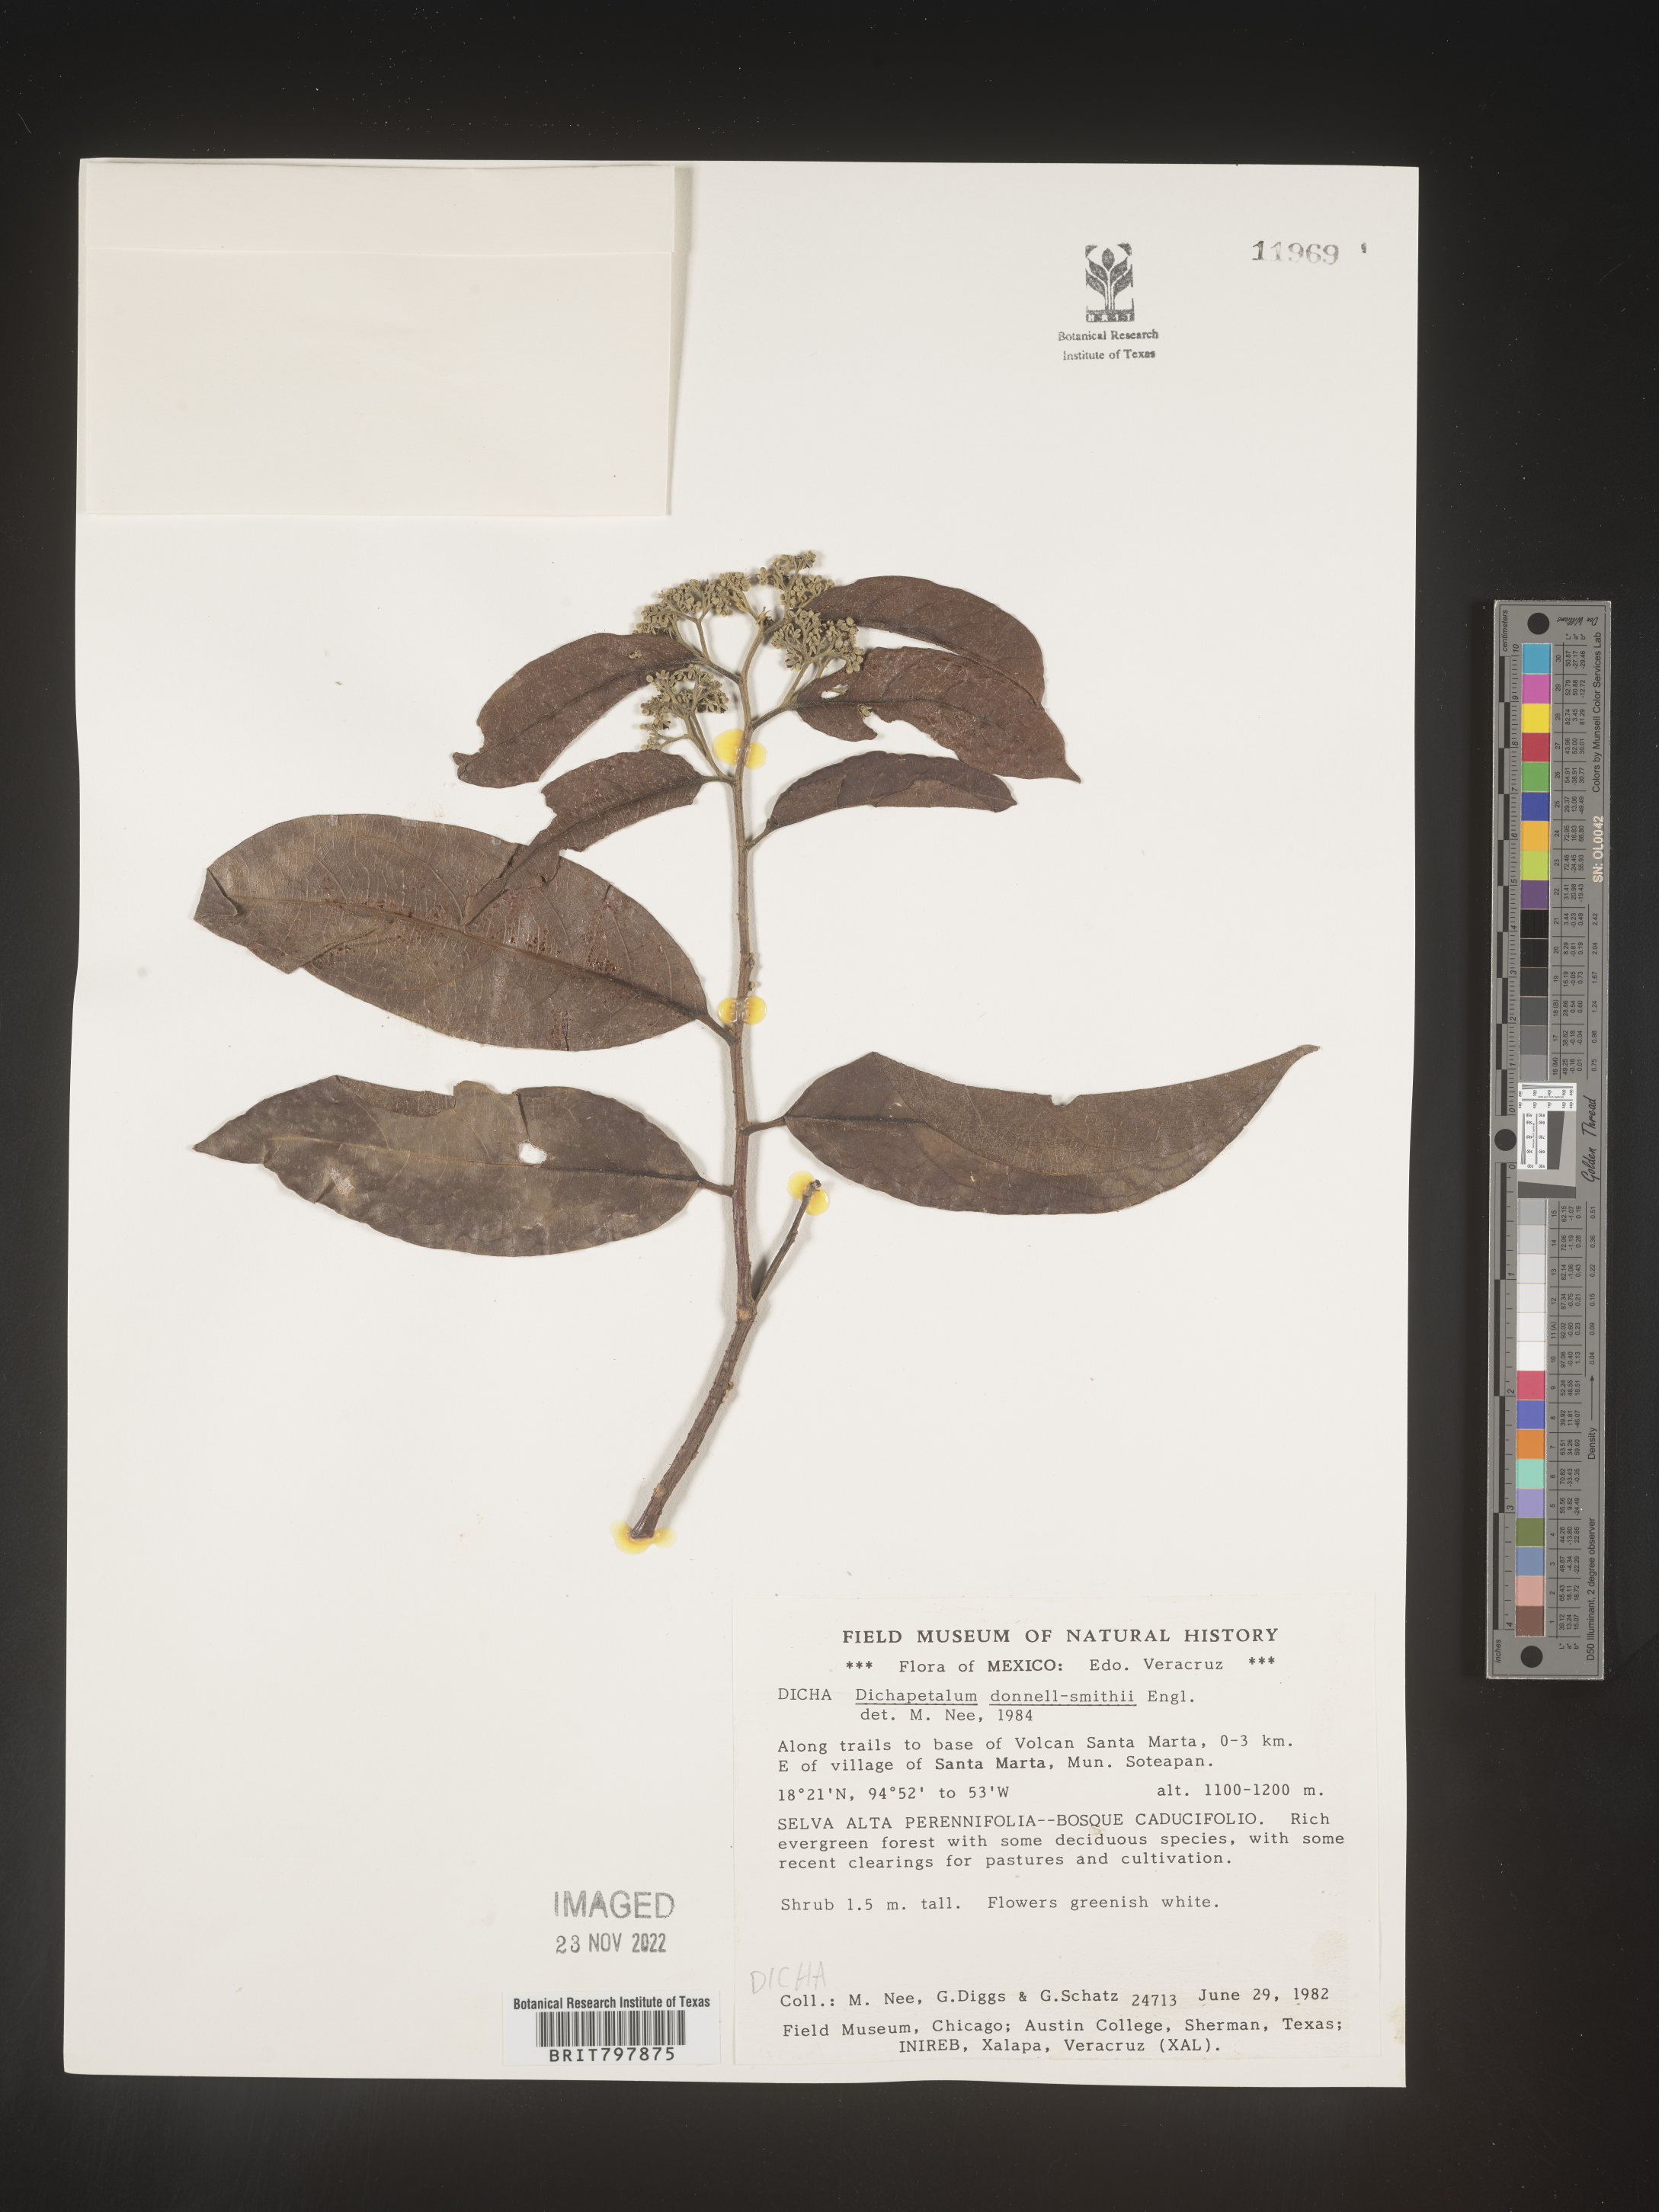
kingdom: Plantae
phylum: Tracheophyta
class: Magnoliopsida
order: Malpighiales
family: Dichapetalaceae
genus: Dichapetalum
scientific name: Dichapetalum
